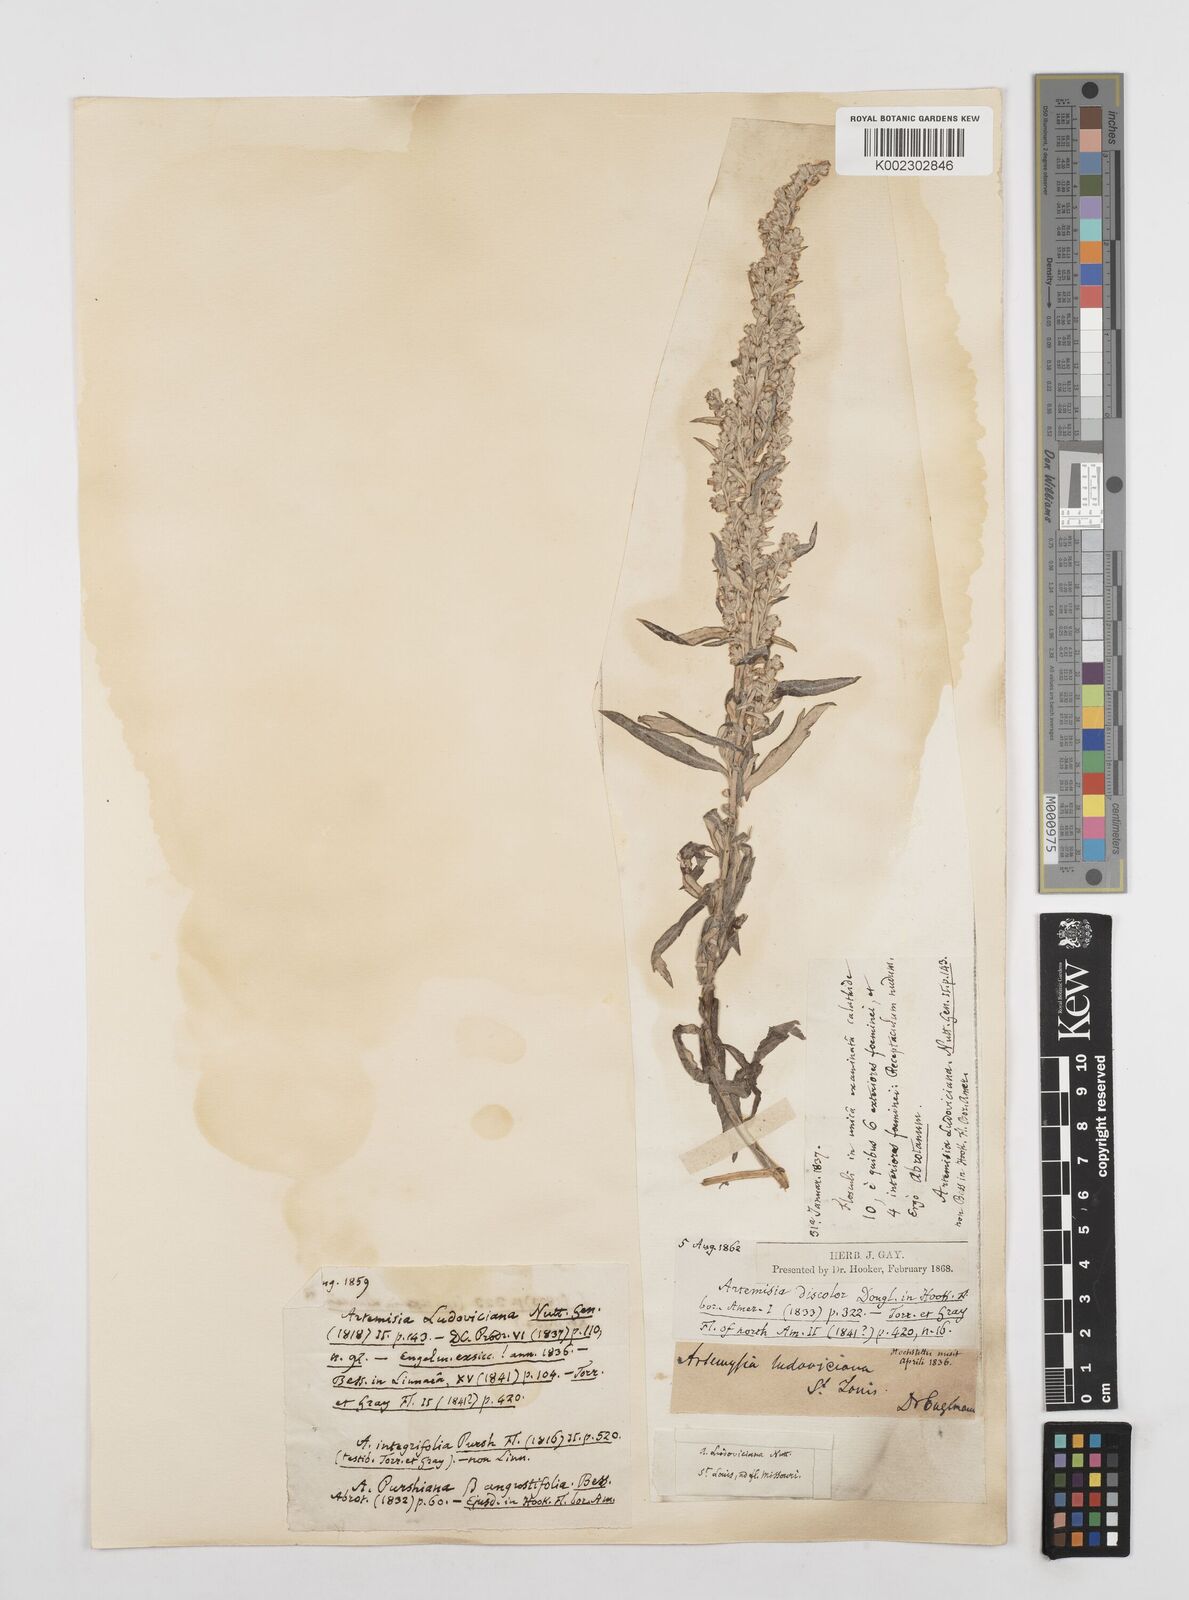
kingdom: Plantae
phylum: Tracheophyta
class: Magnoliopsida
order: Asterales
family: Asteraceae
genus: Artemisia
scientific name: Artemisia ludoviciana
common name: Western mugwort
